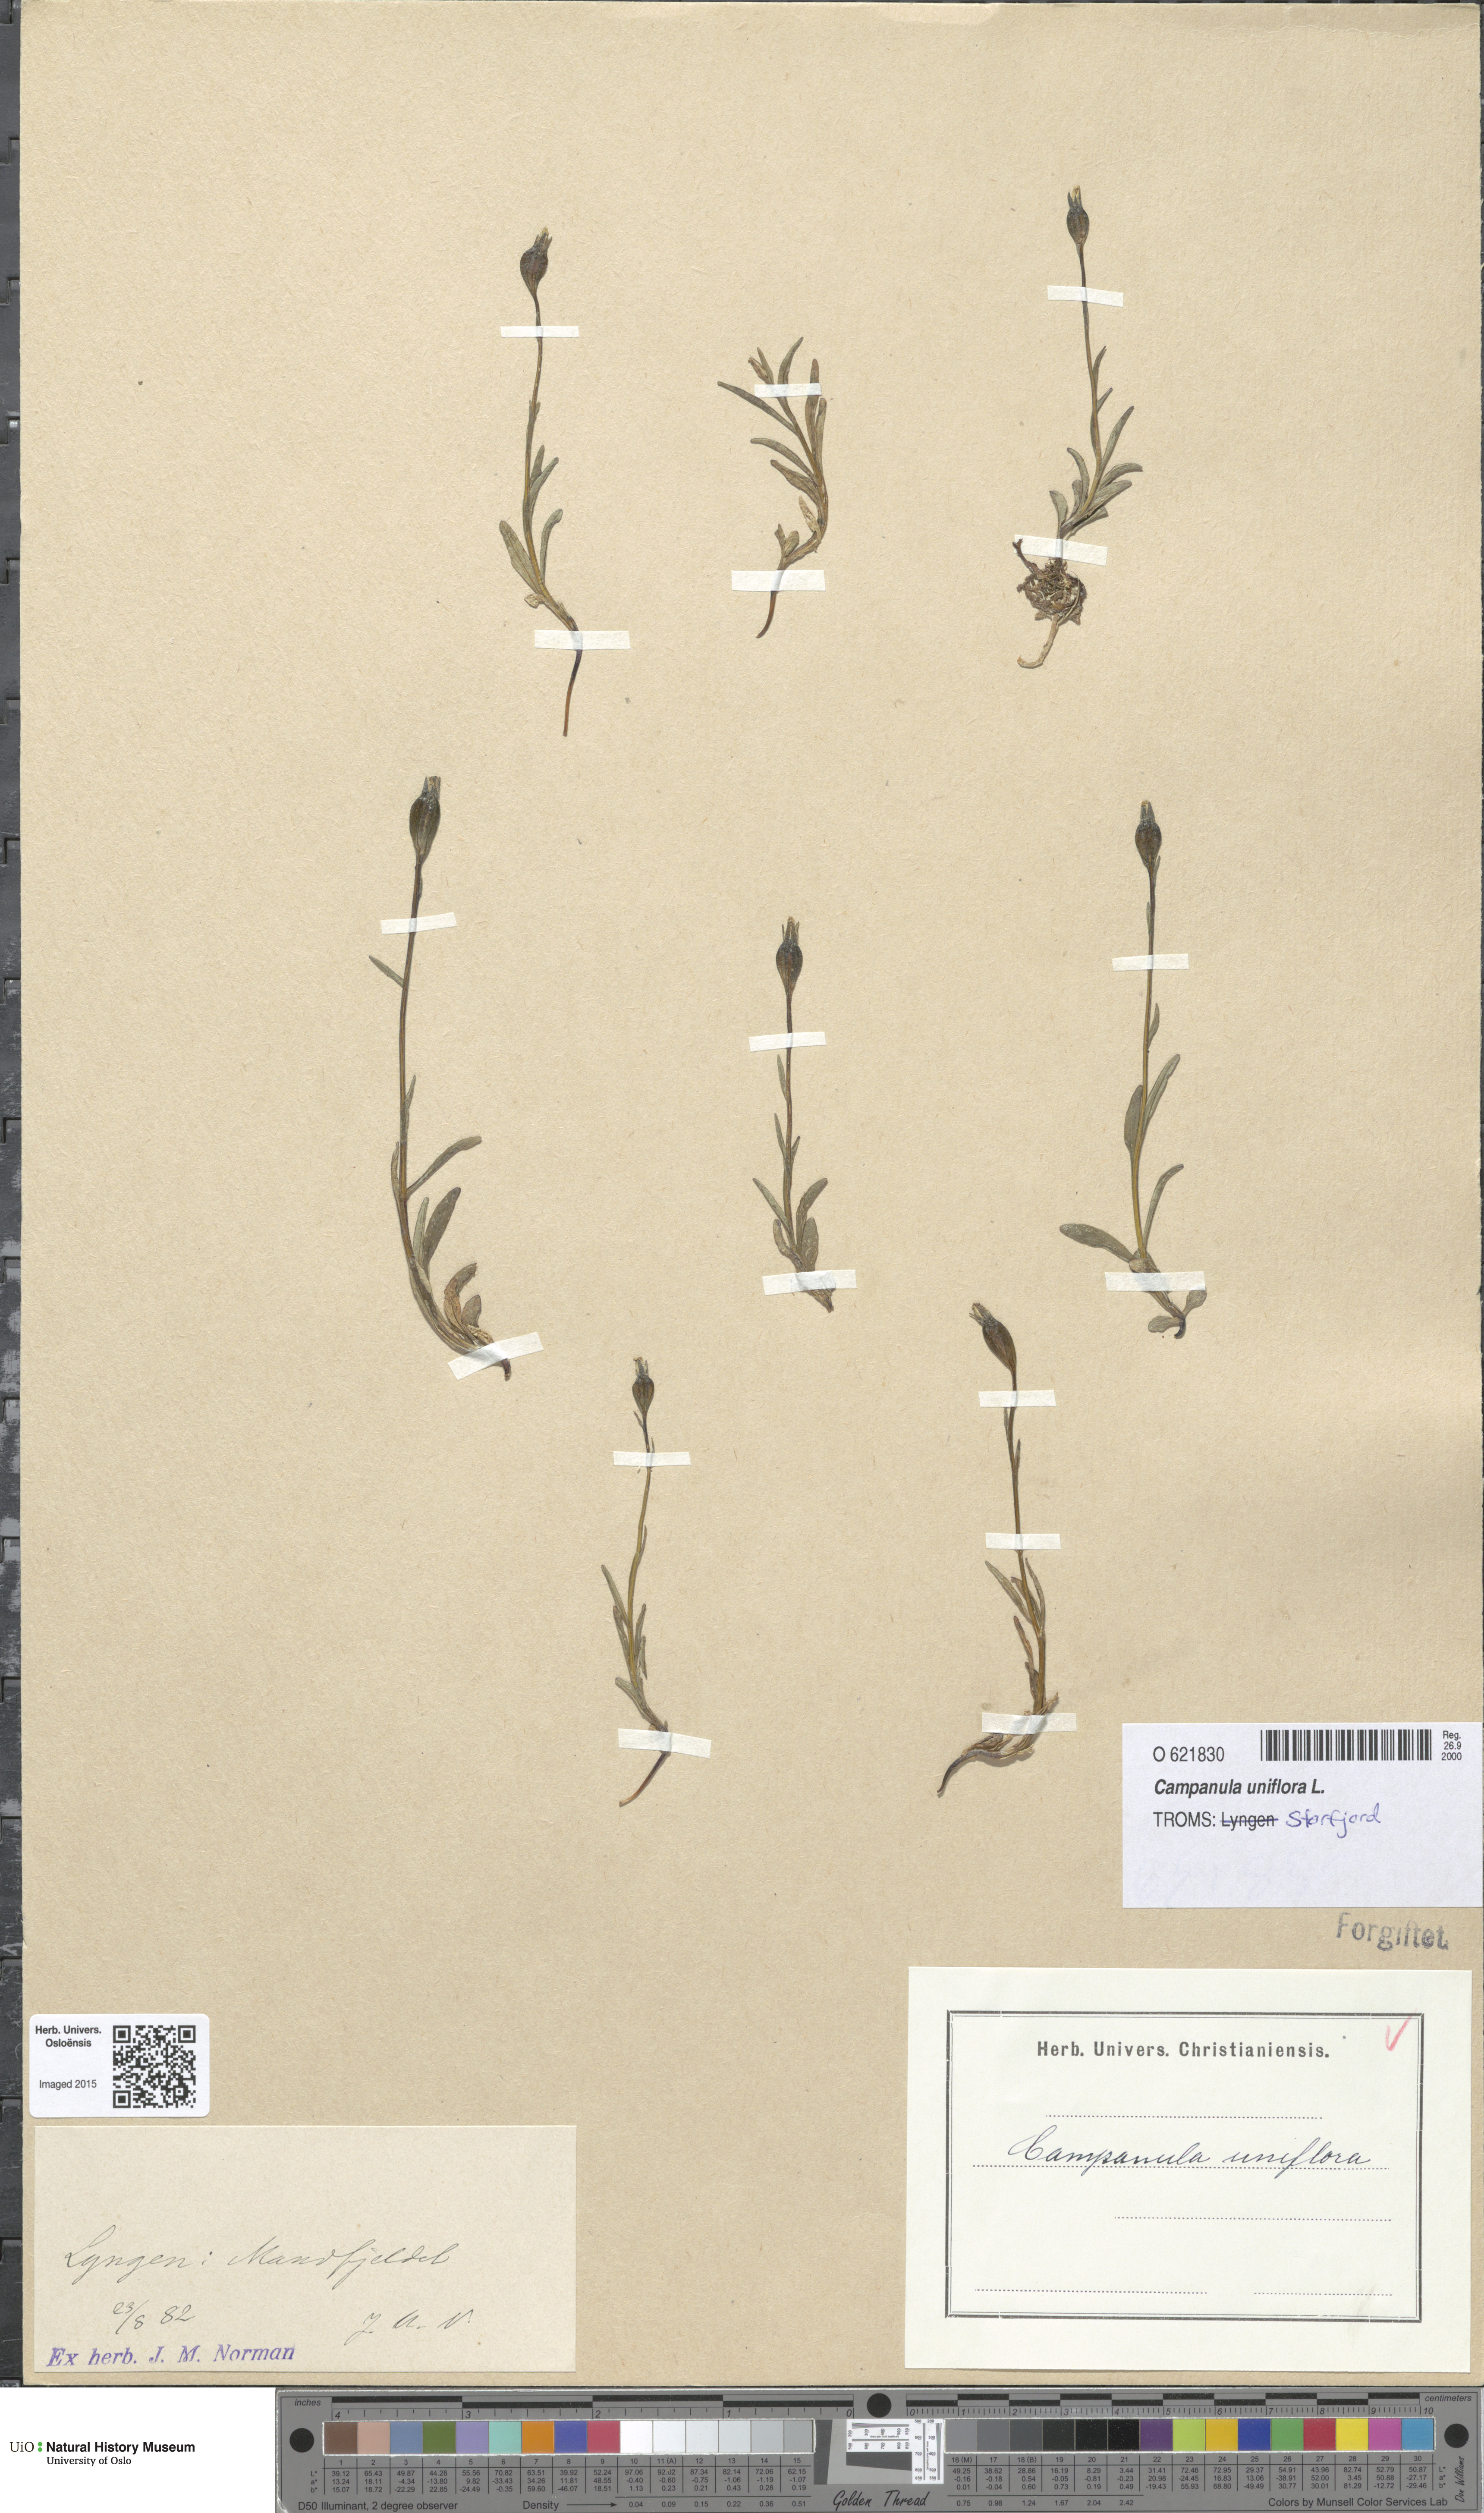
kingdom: Plantae
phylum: Tracheophyta
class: Magnoliopsida
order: Asterales
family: Campanulaceae
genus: Melanocalyx
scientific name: Melanocalyx uniflora
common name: Alpine harebell
